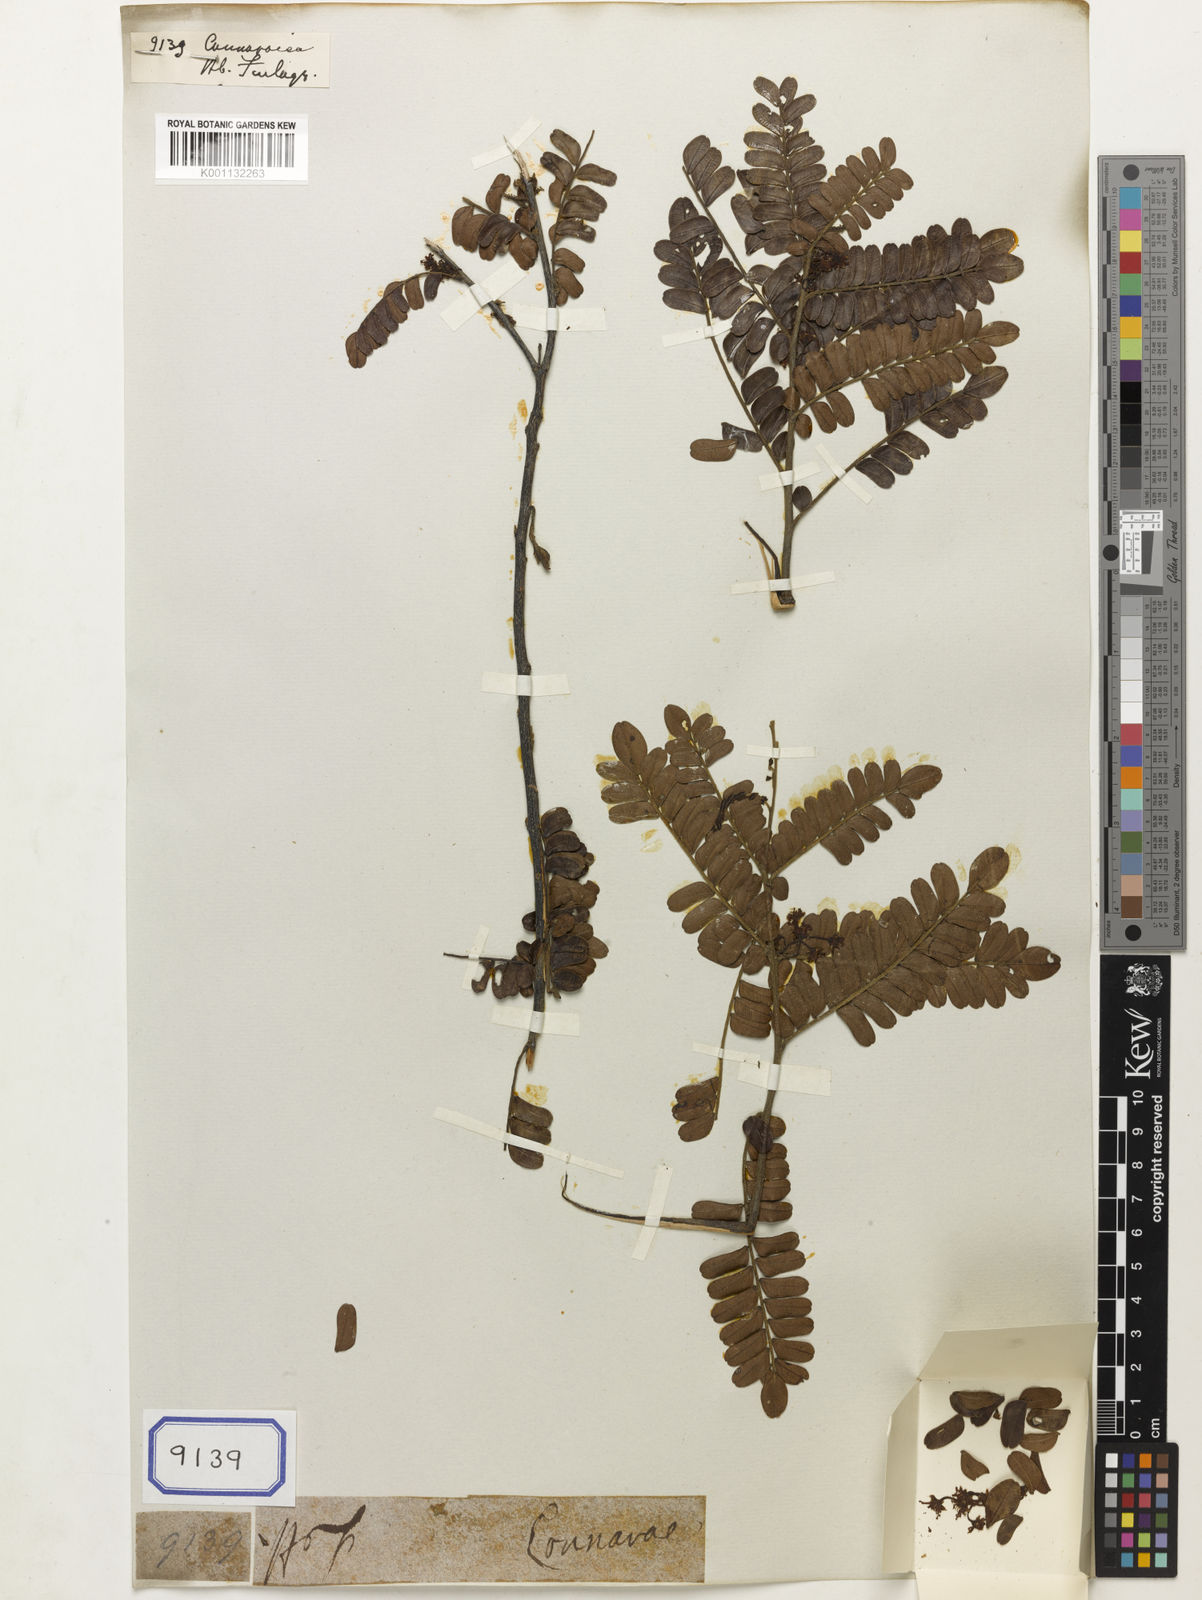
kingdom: Plantae
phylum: Tracheophyta
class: Magnoliopsida
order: Oxalidales
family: Connaraceae
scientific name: Connaraceae
